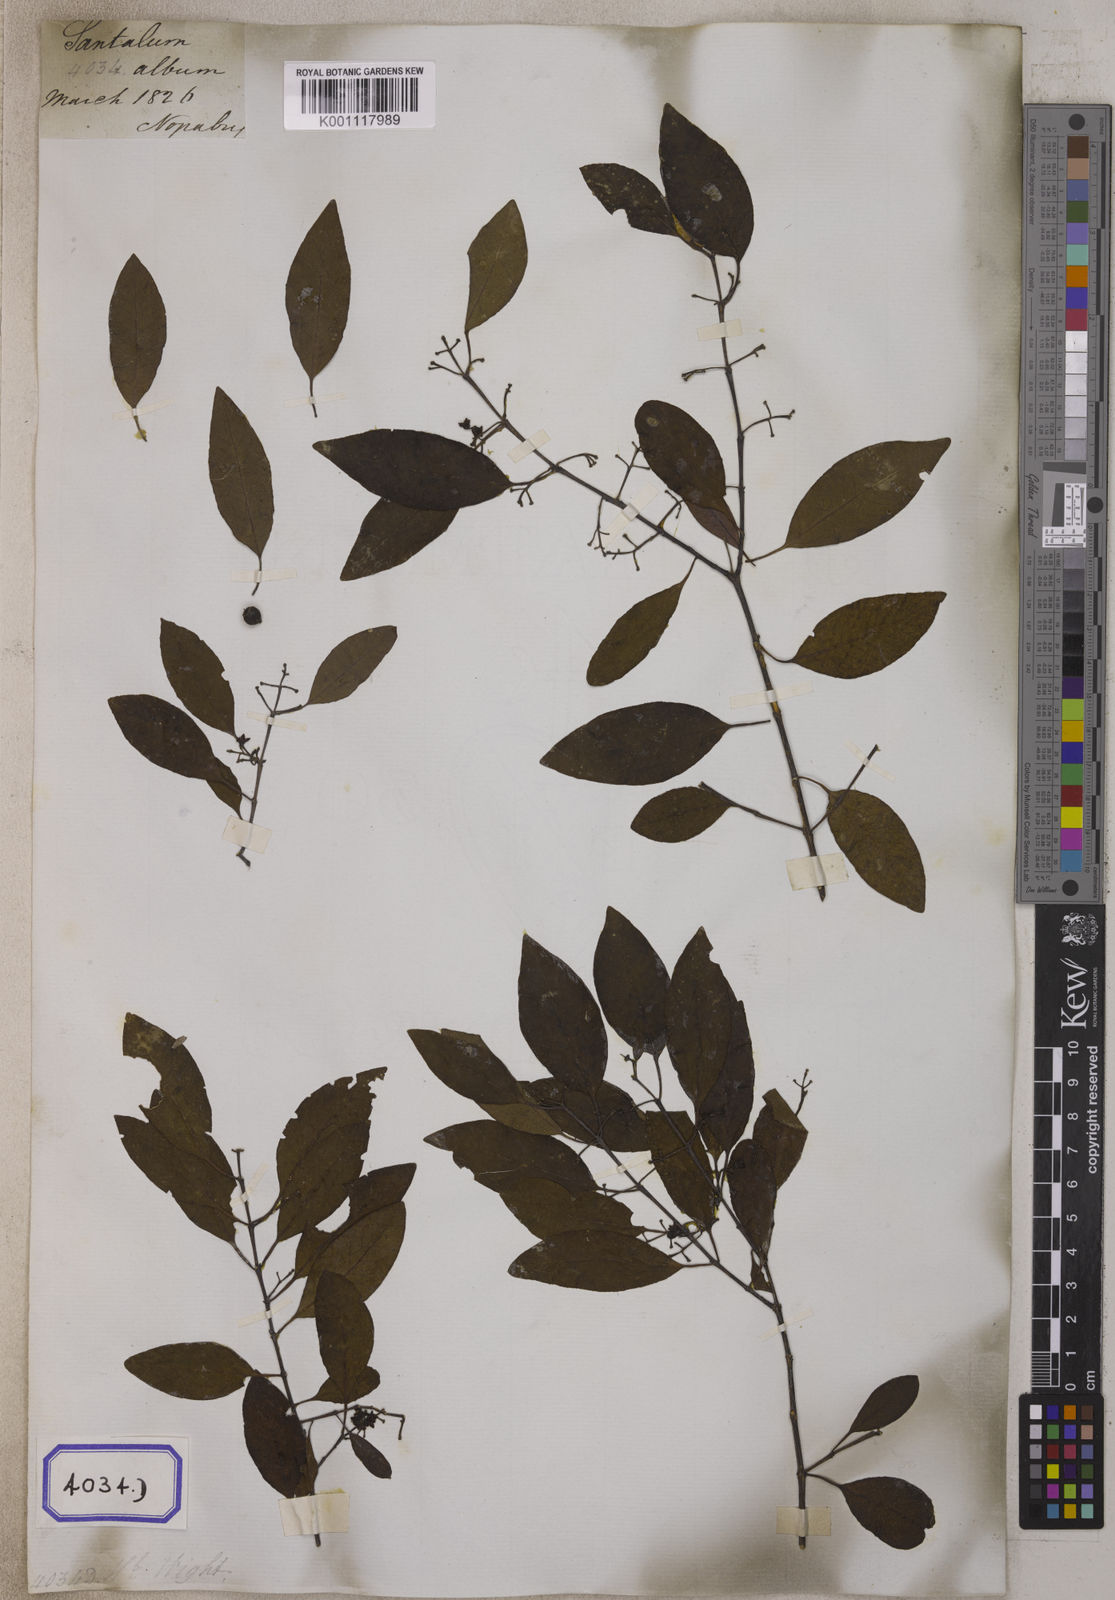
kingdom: Plantae
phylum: Tracheophyta
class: Magnoliopsida
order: Santalales
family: Santalaceae
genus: Santalum
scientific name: Santalum album
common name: Indian sandalwood
